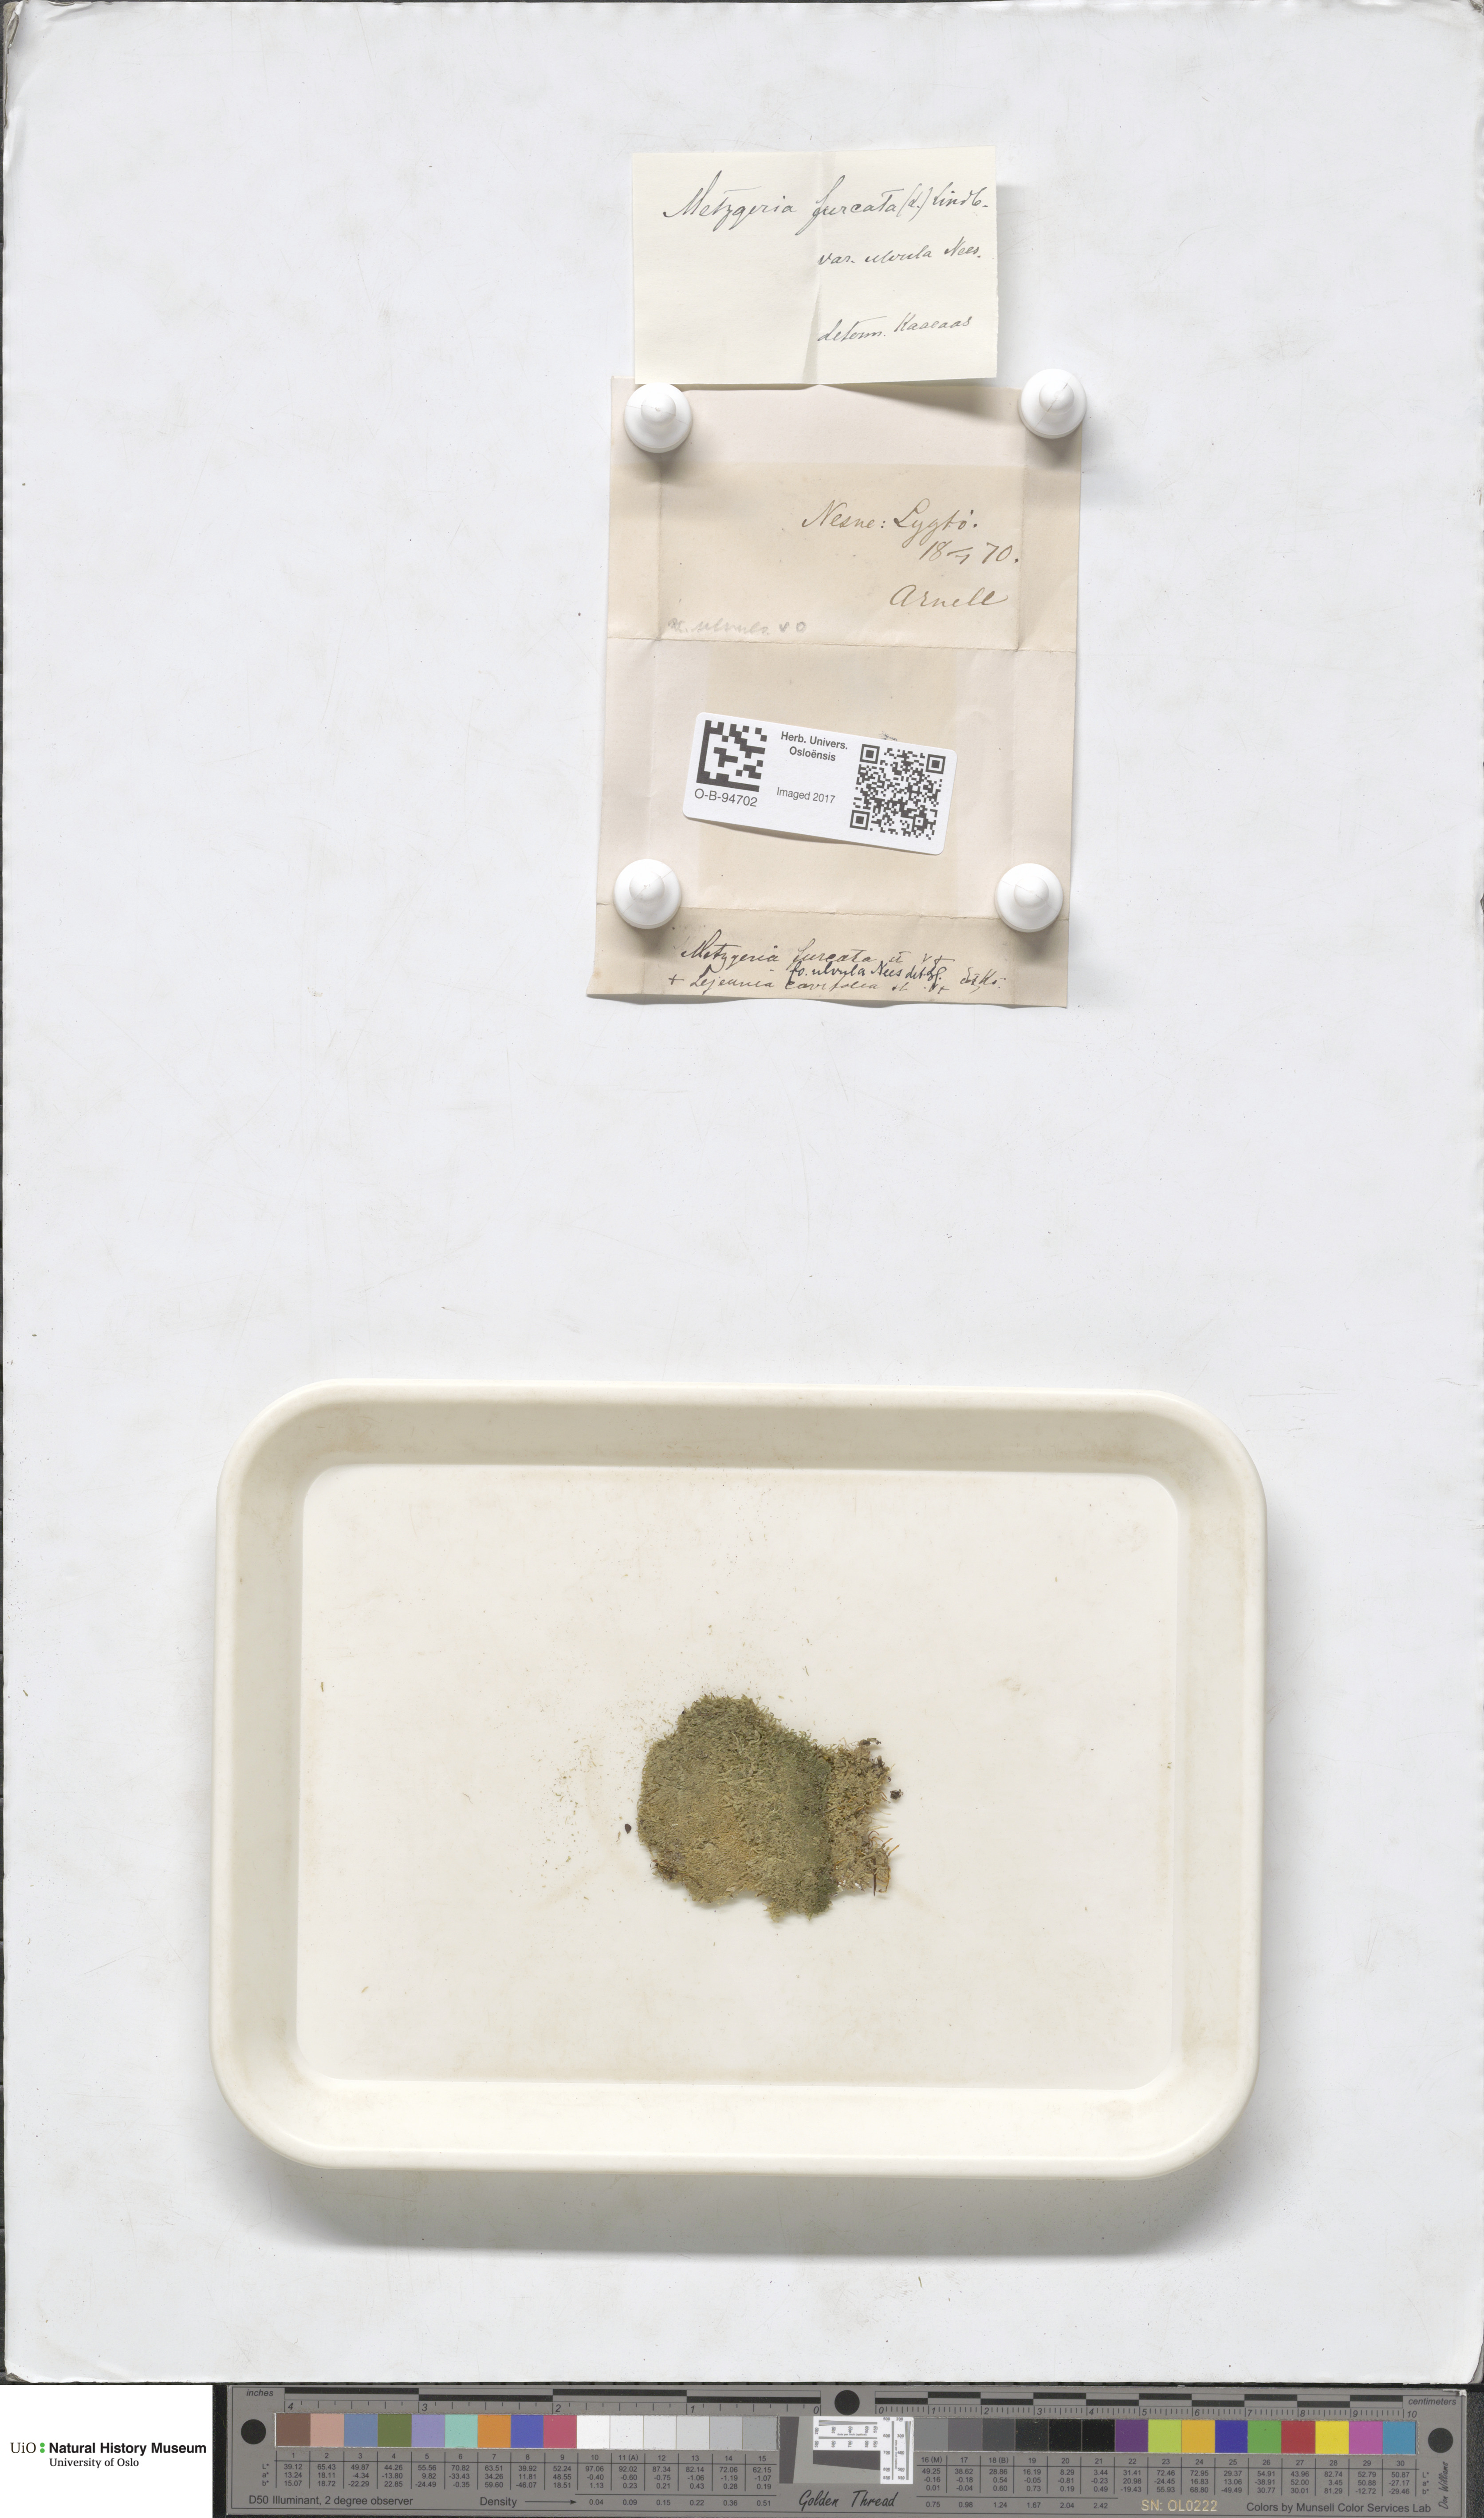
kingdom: Plantae
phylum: Marchantiophyta
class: Jungermanniopsida
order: Metzgeriales
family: Metzgeriaceae
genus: Metzgeria
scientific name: Metzgeria furcata
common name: Forked veilwort
